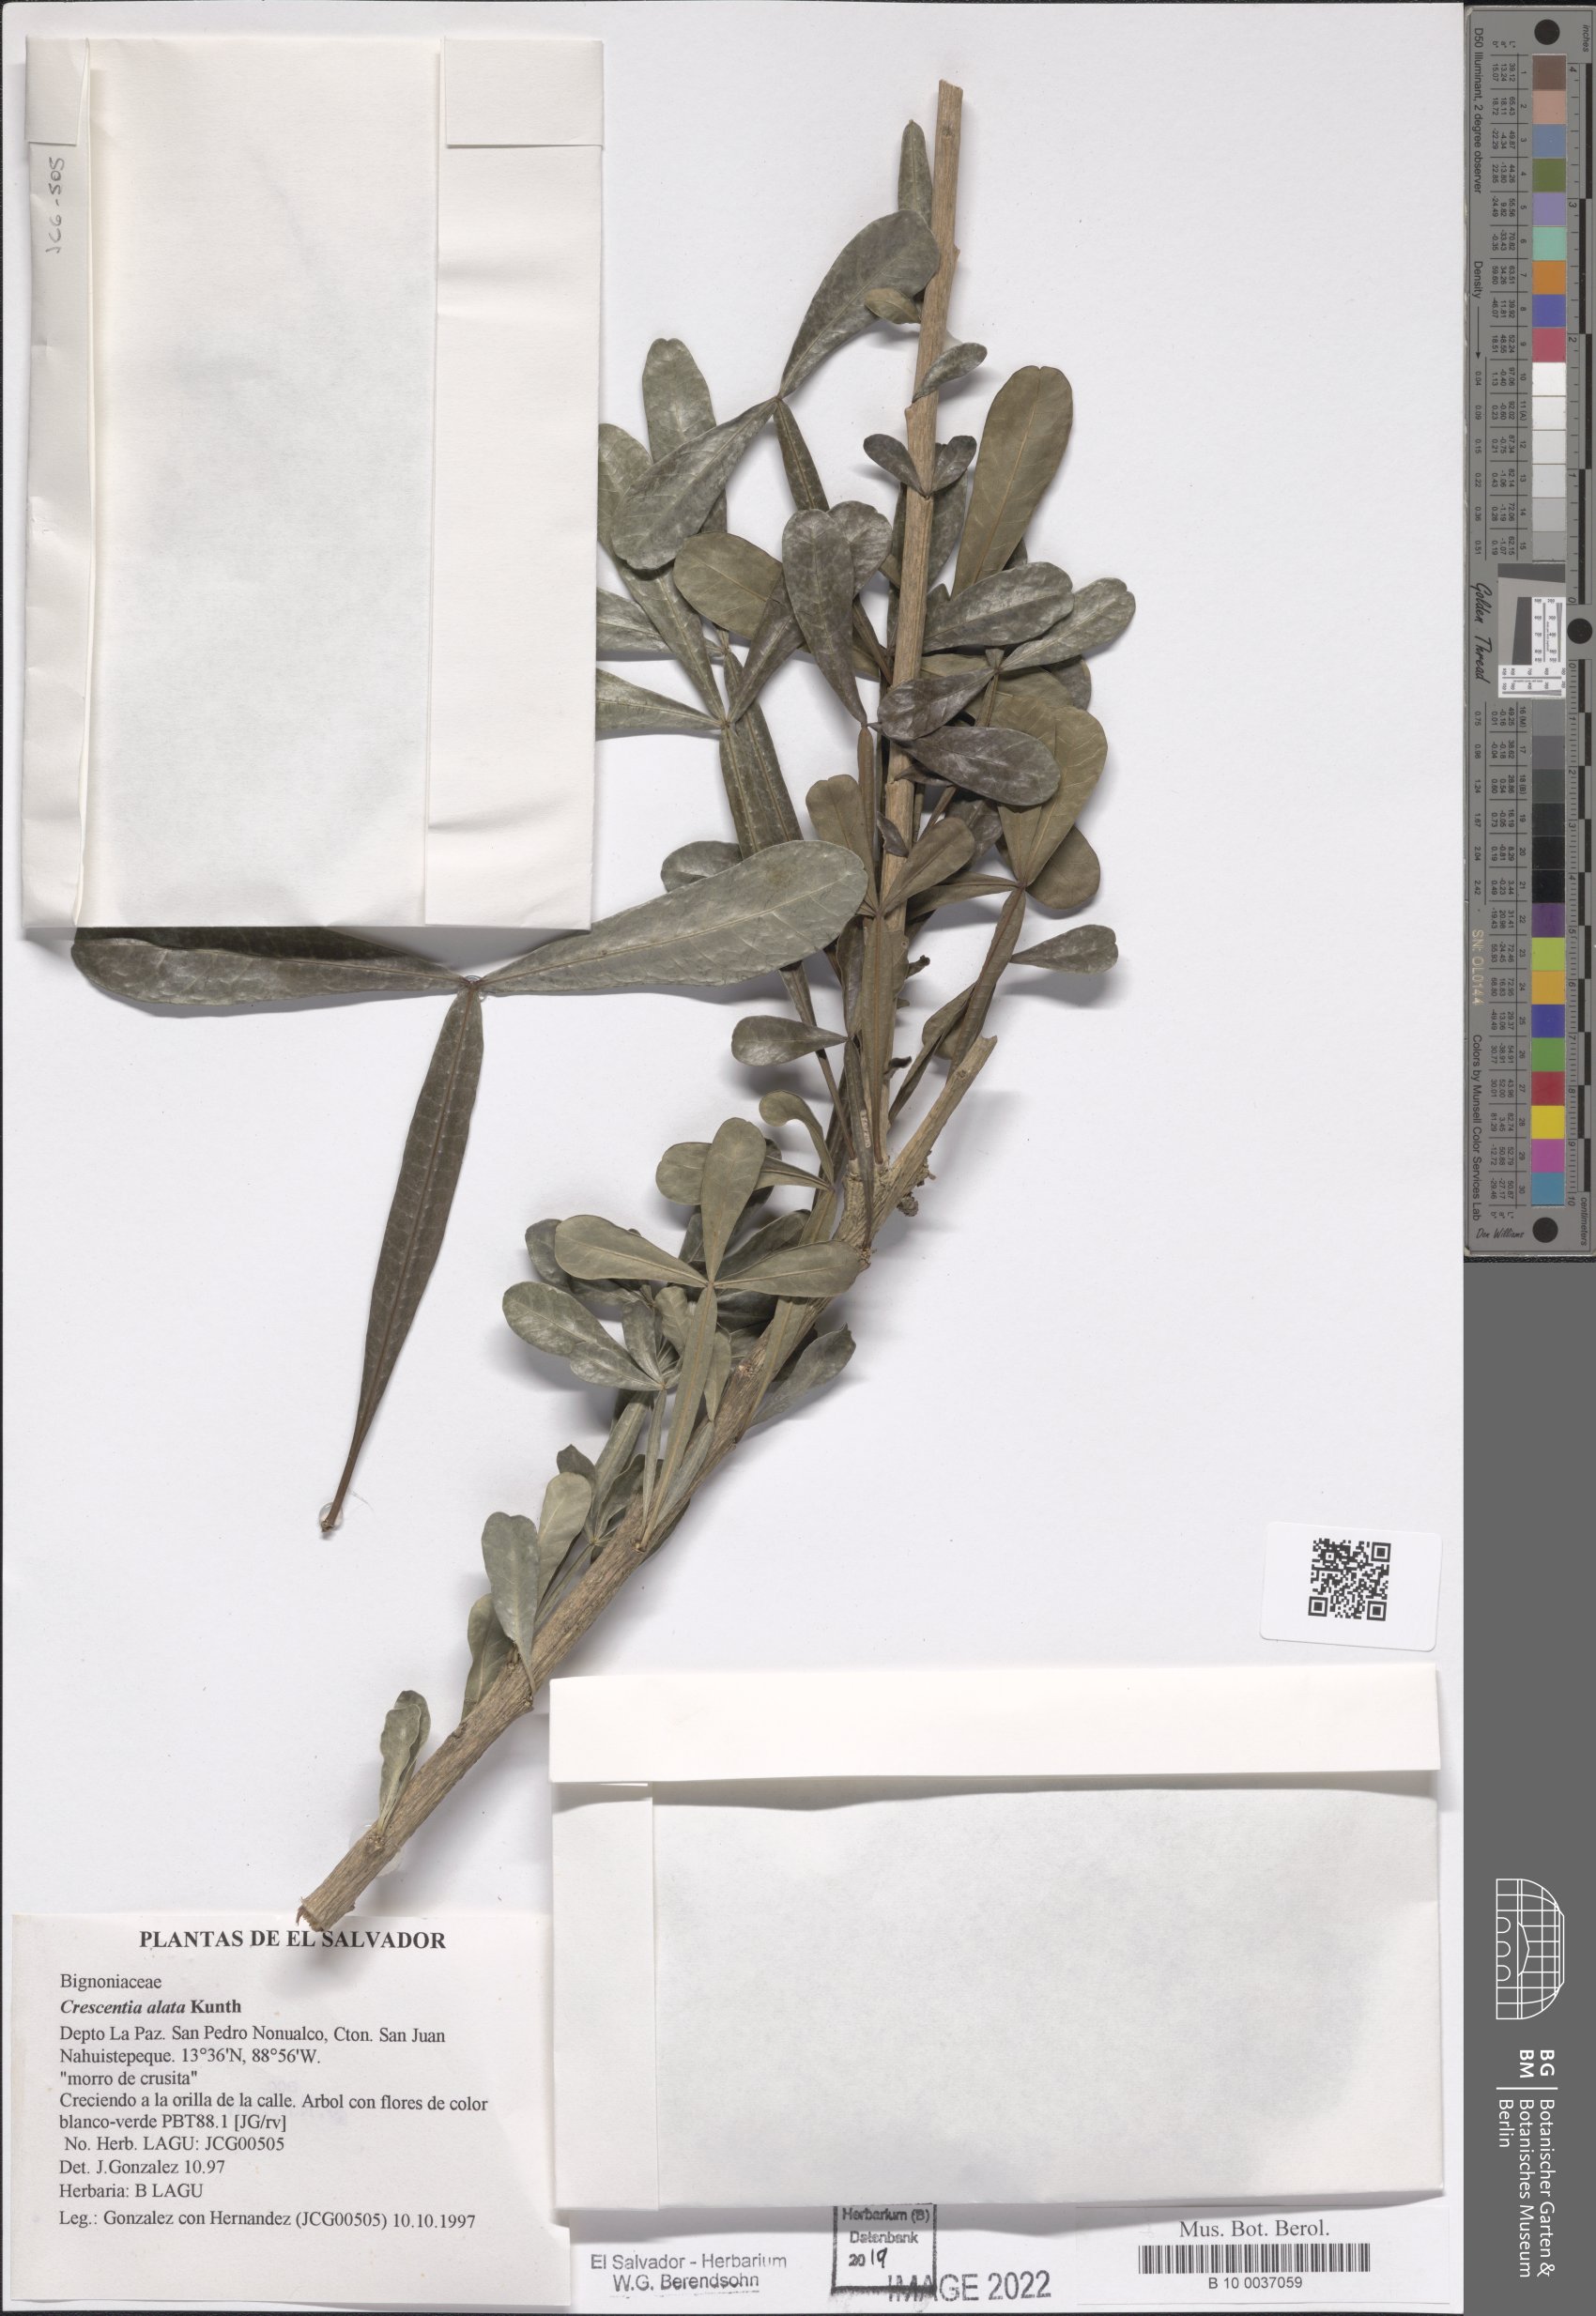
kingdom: Plantae
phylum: Tracheophyta
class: Magnoliopsida
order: Lamiales
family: Bignoniaceae
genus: Crescentia
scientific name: Crescentia alata
